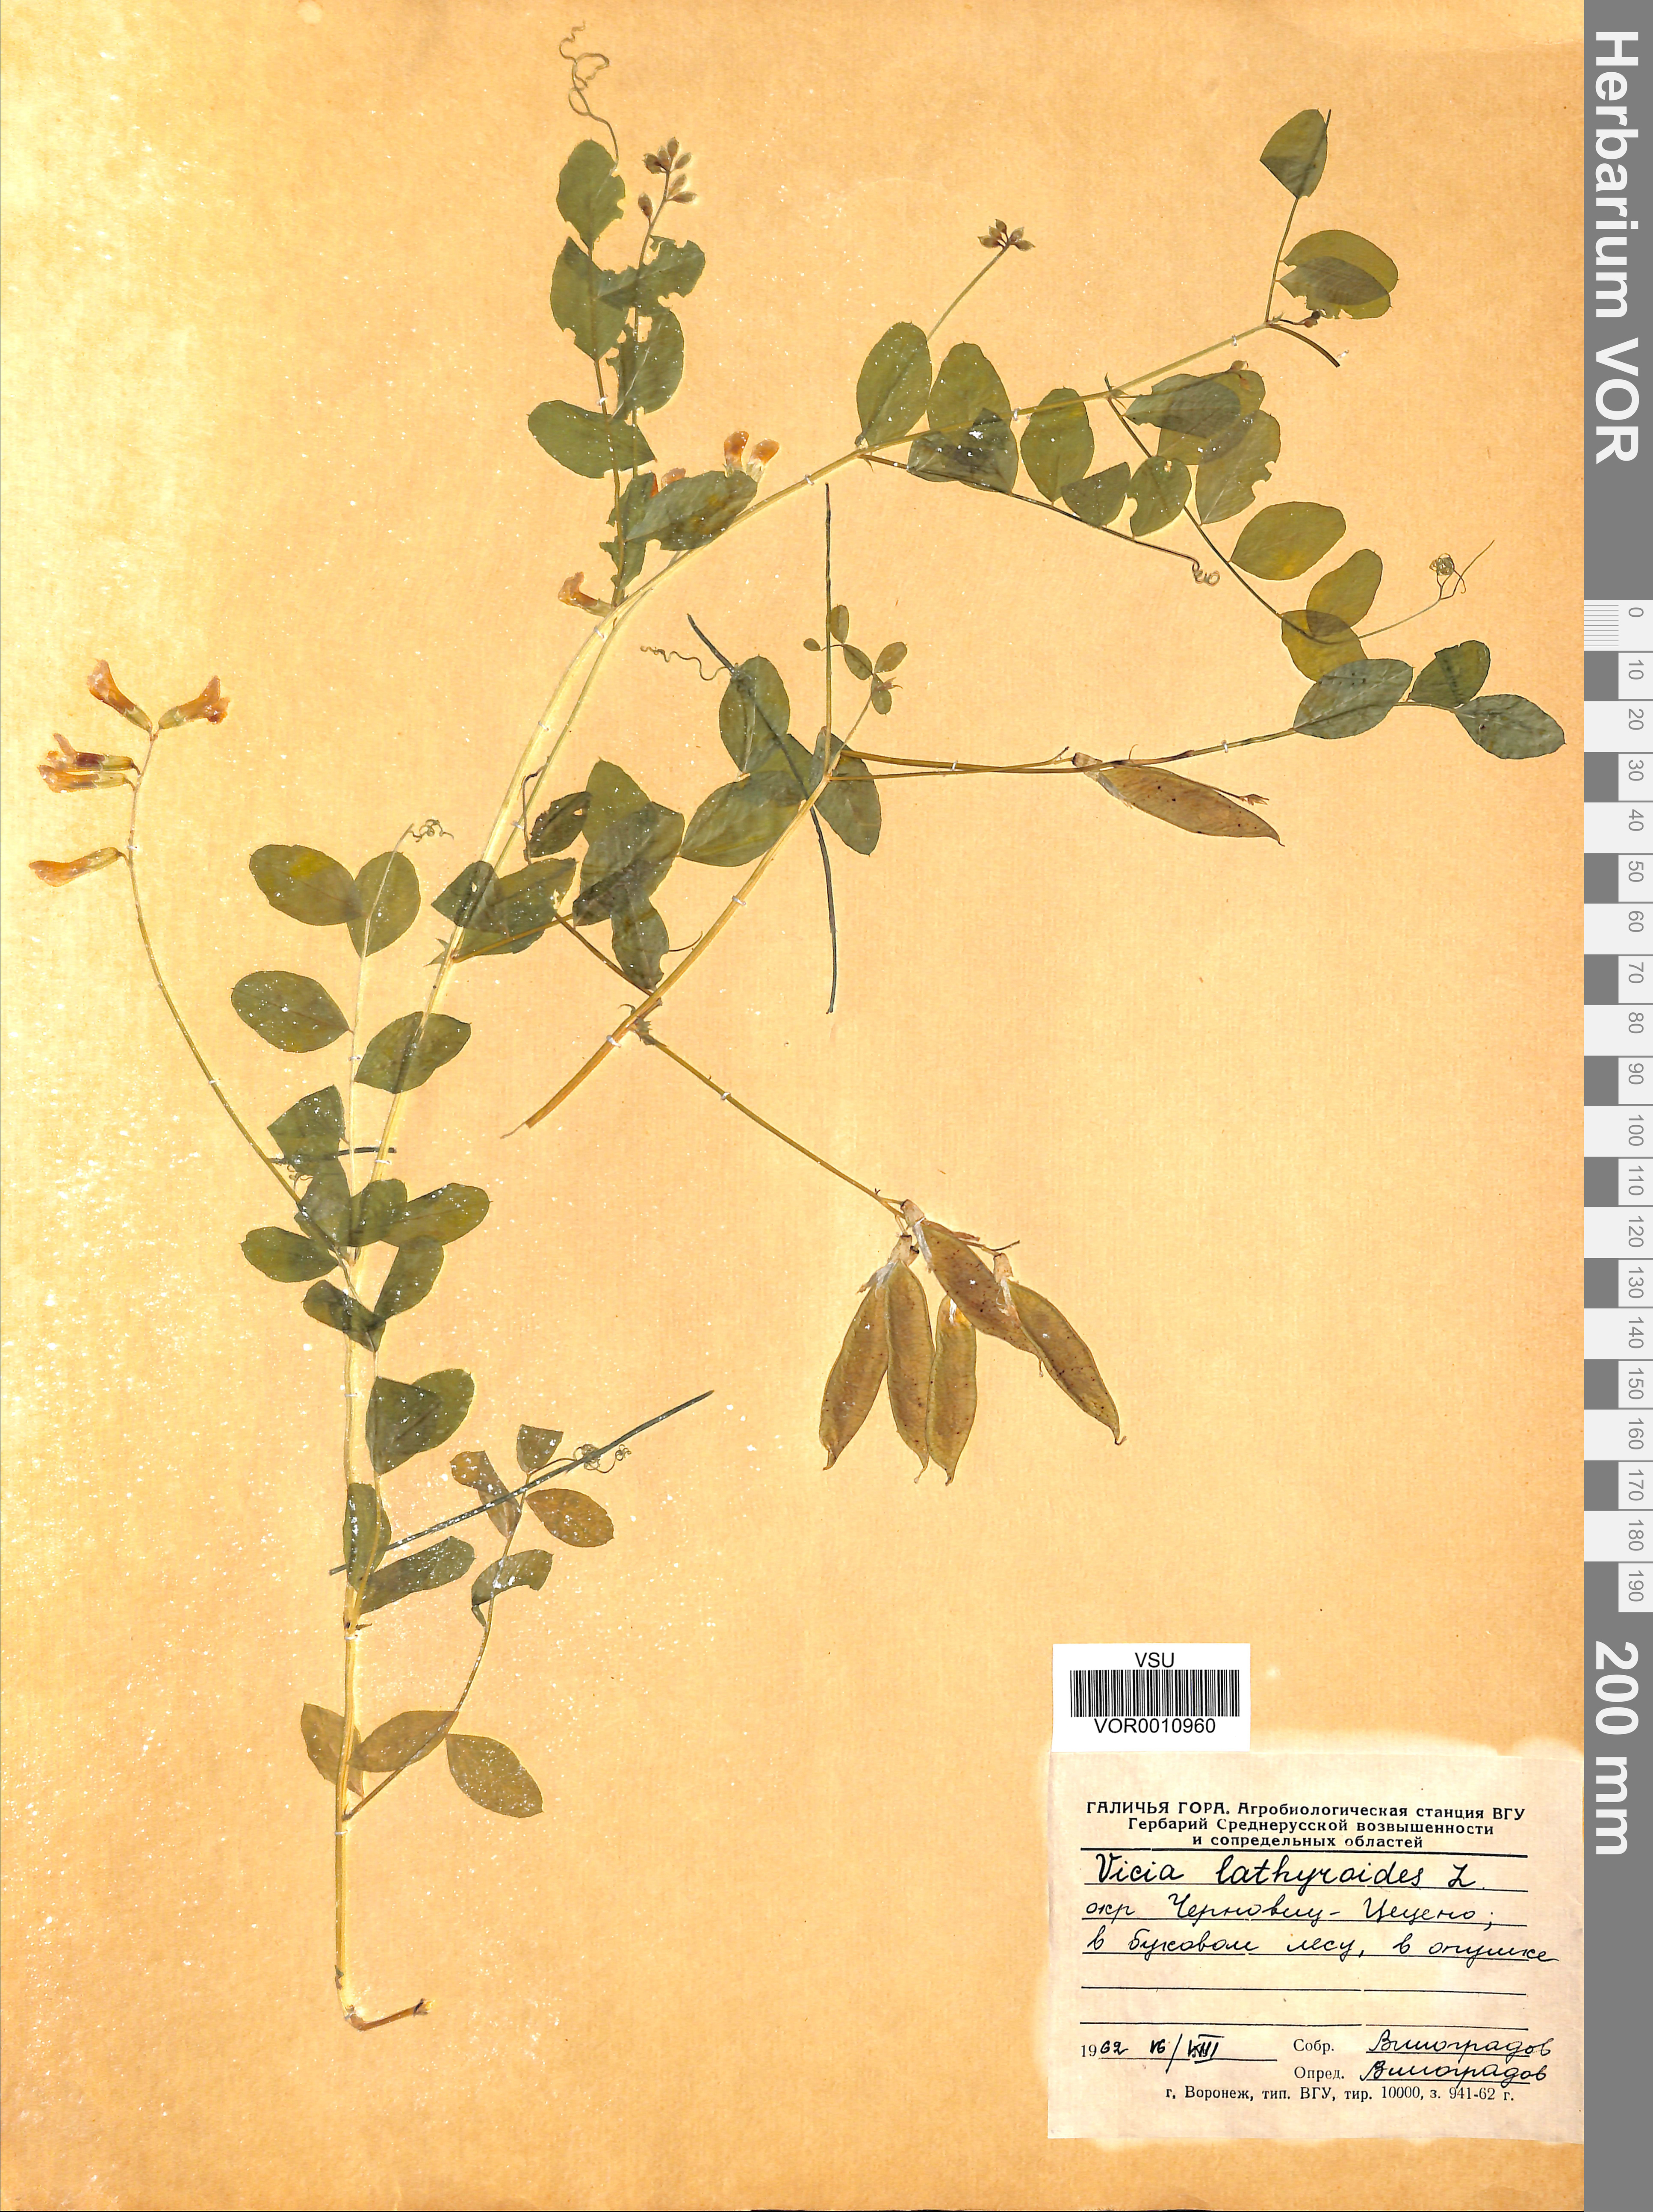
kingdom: Plantae
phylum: Tracheophyta
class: Magnoliopsida
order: Fabales
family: Fabaceae
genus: Vicia
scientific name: Vicia lathyroides
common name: Spring vetch
